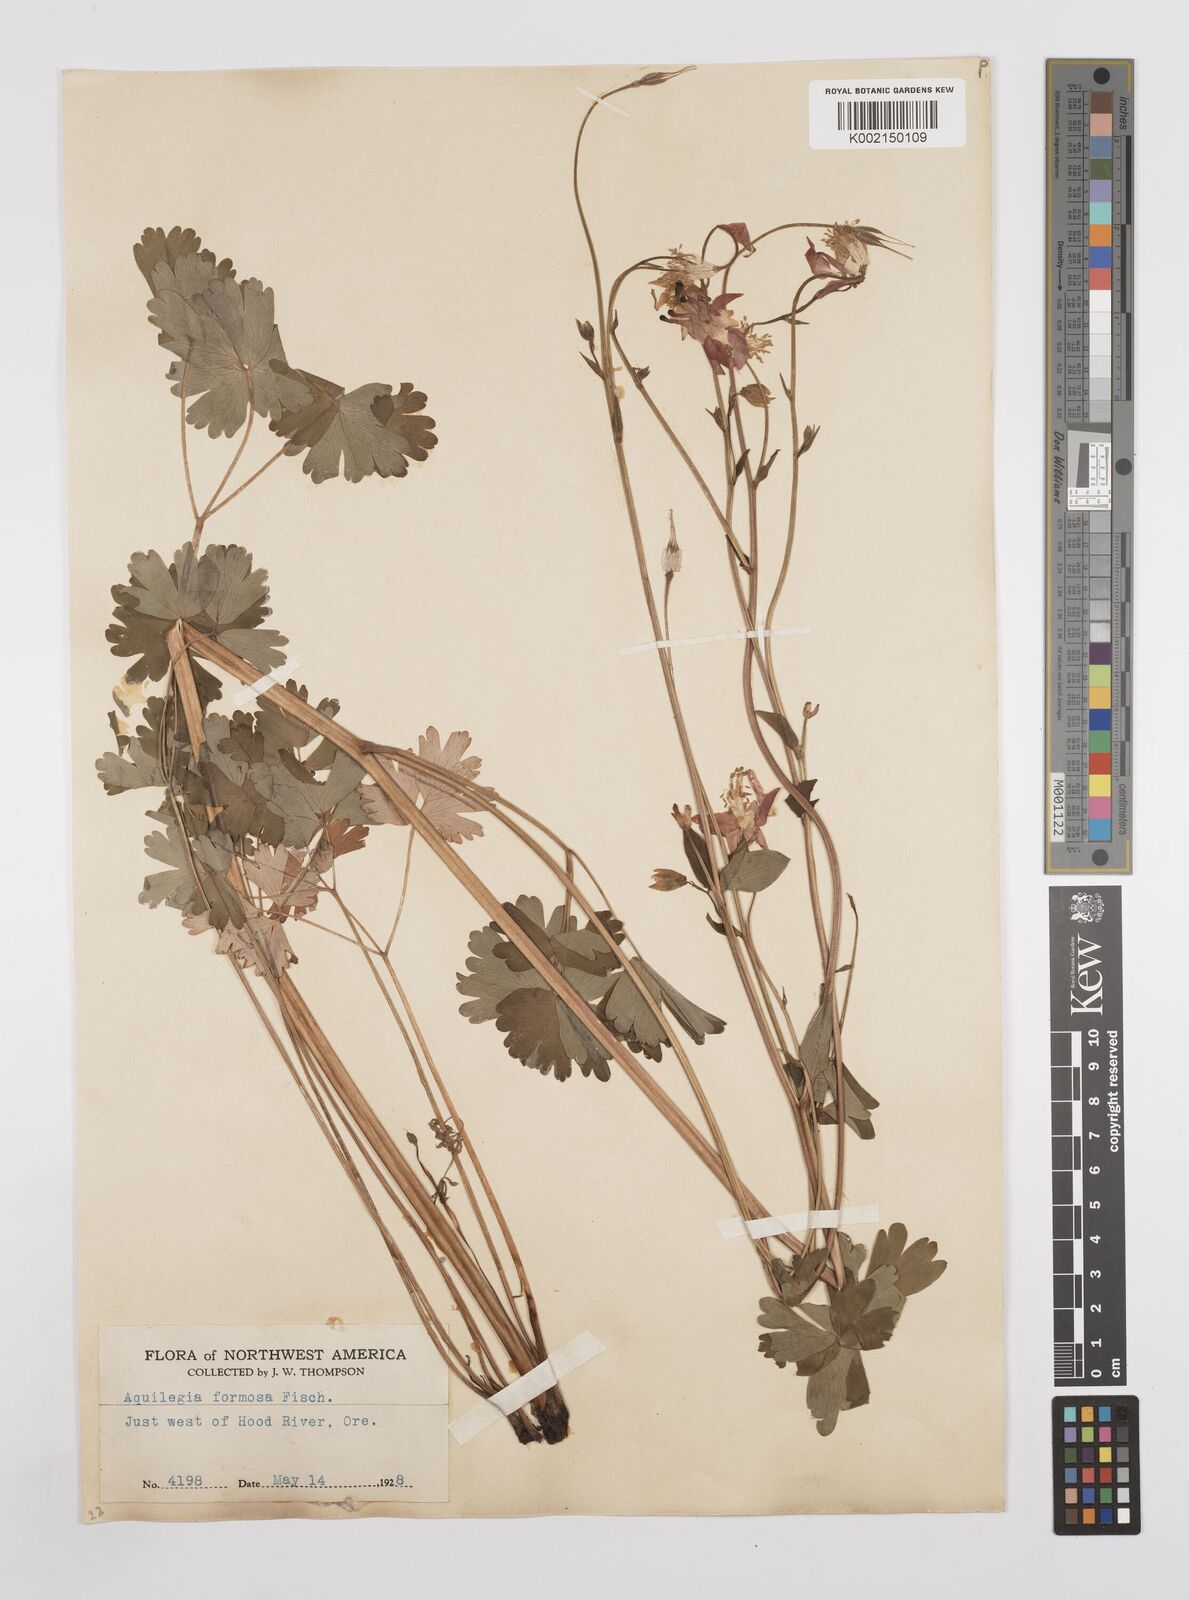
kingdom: Plantae
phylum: Tracheophyta
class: Magnoliopsida
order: Ranunculales
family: Ranunculaceae
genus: Aquilegia
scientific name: Aquilegia
